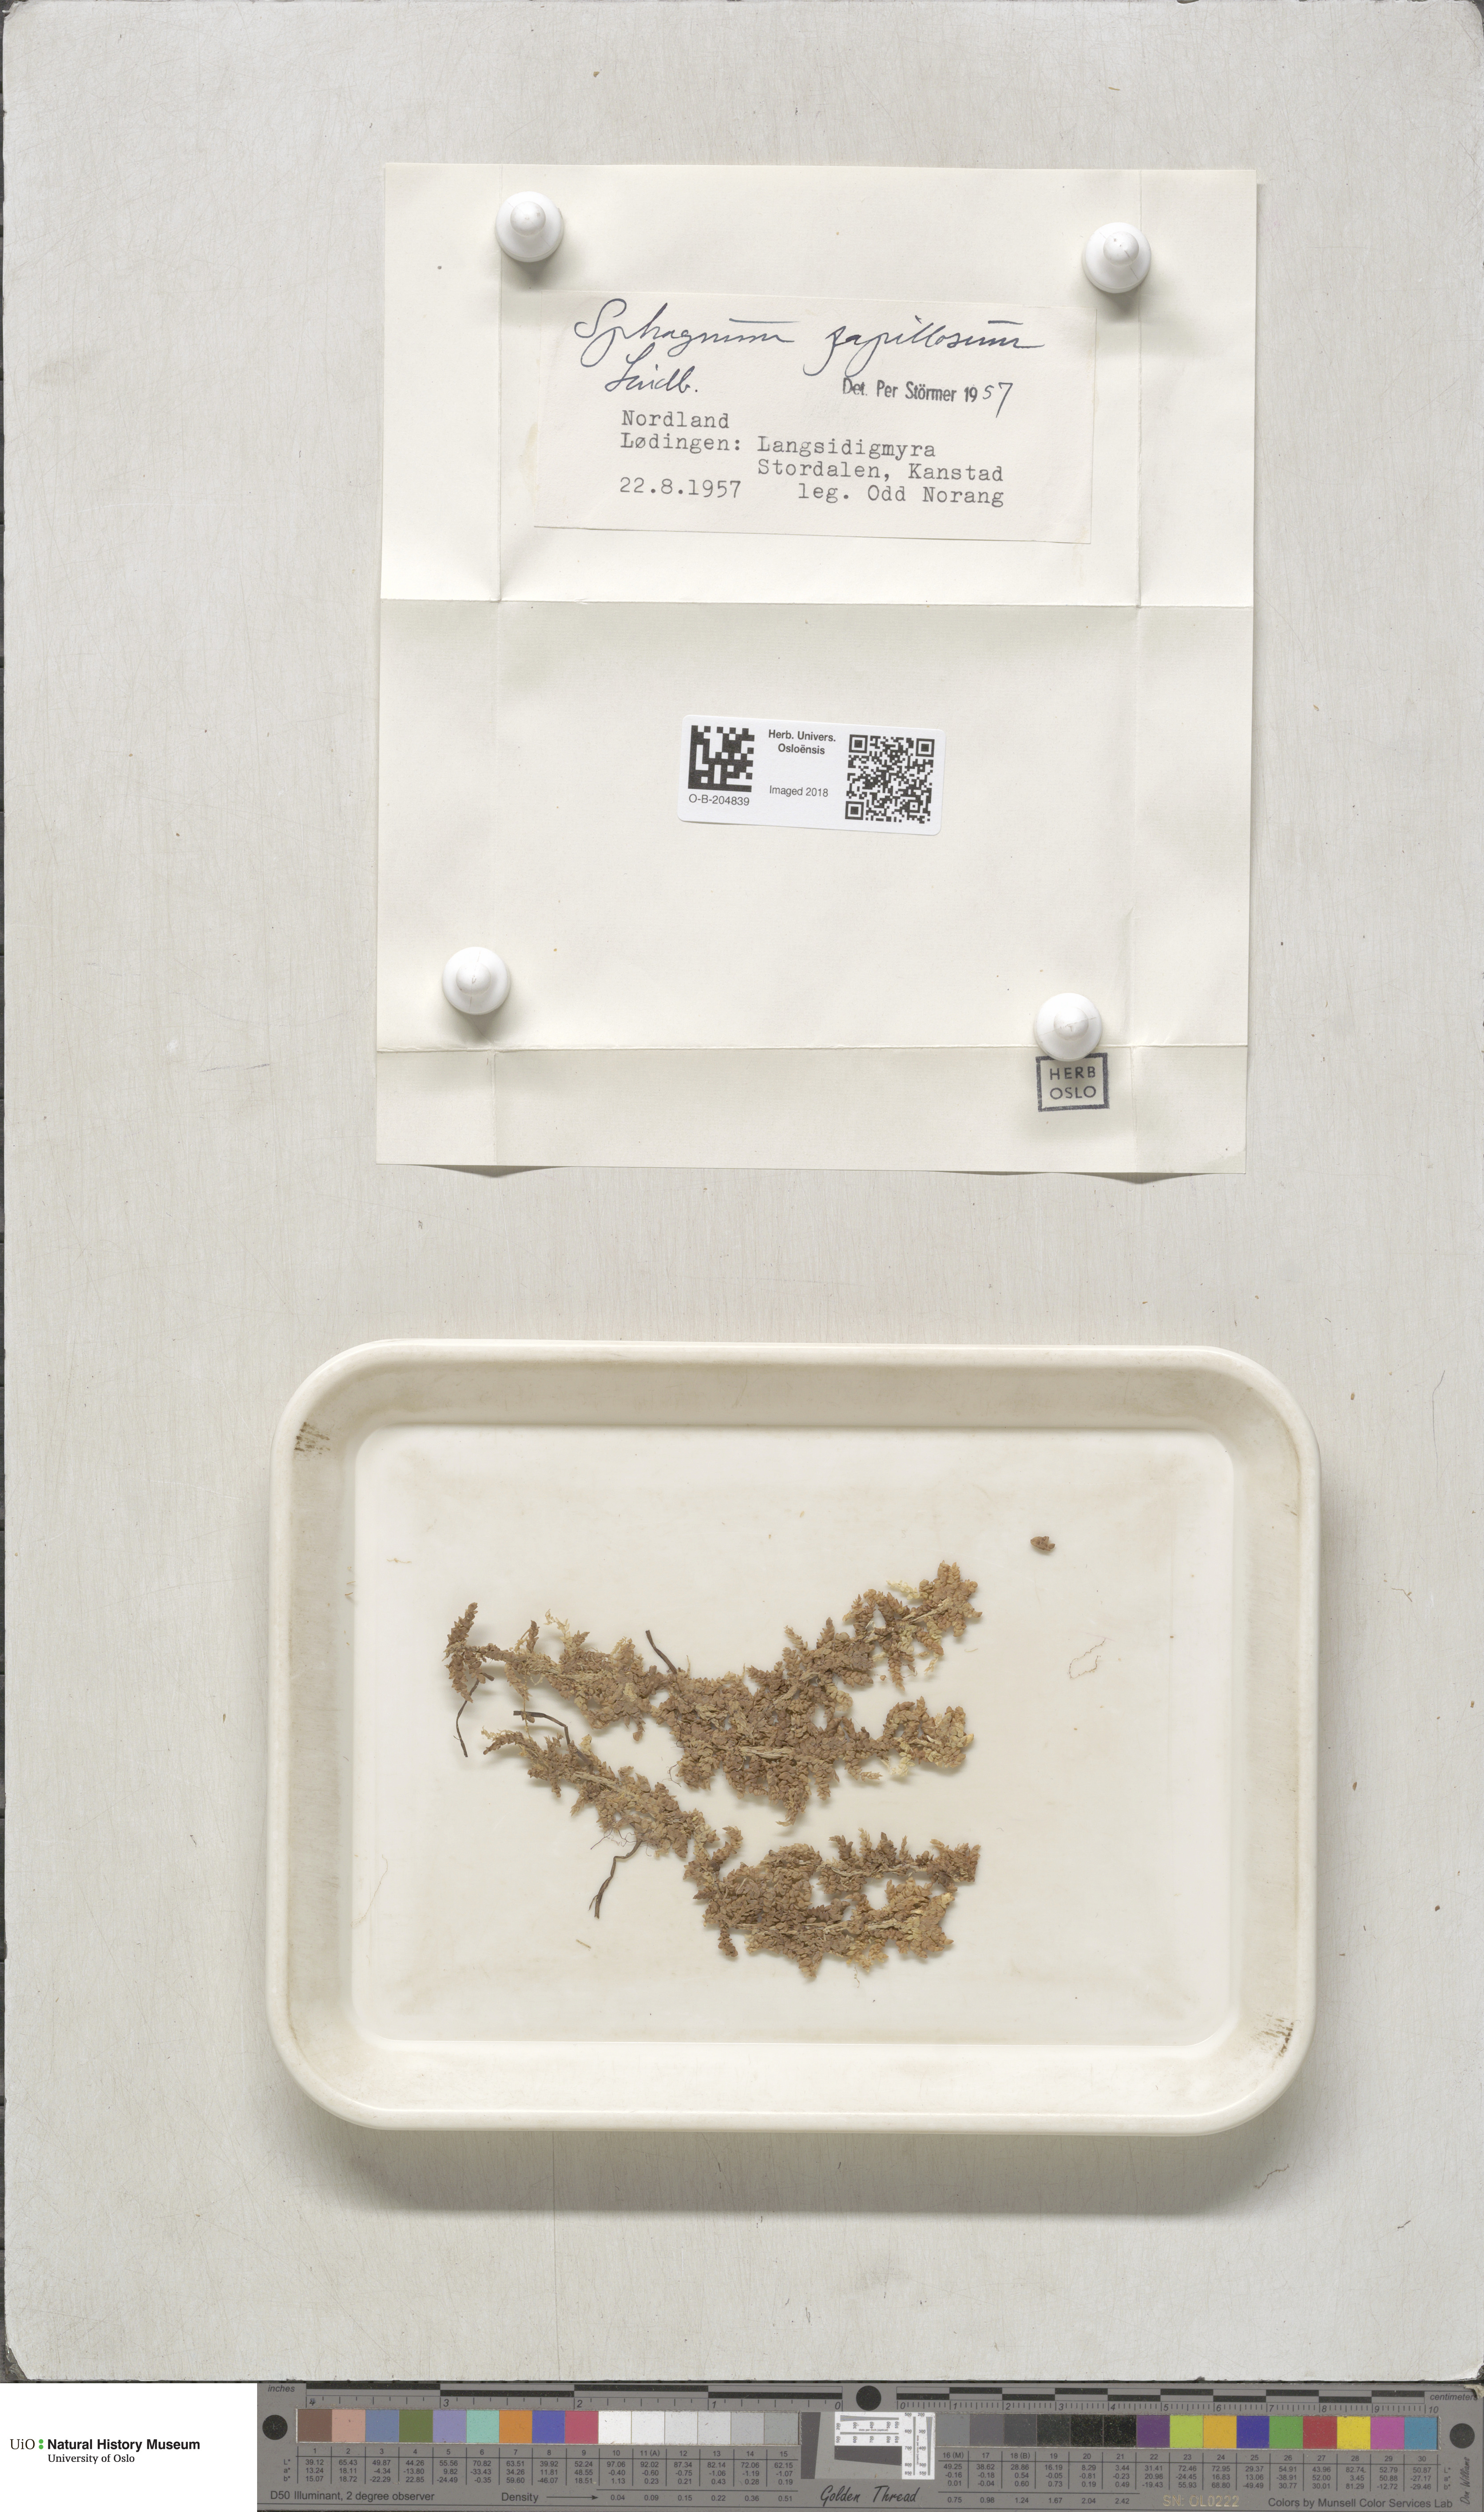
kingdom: Plantae
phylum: Bryophyta
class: Sphagnopsida
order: Sphagnales
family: Sphagnaceae
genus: Sphagnum
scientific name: Sphagnum papillosum
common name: Papillose peat moss
